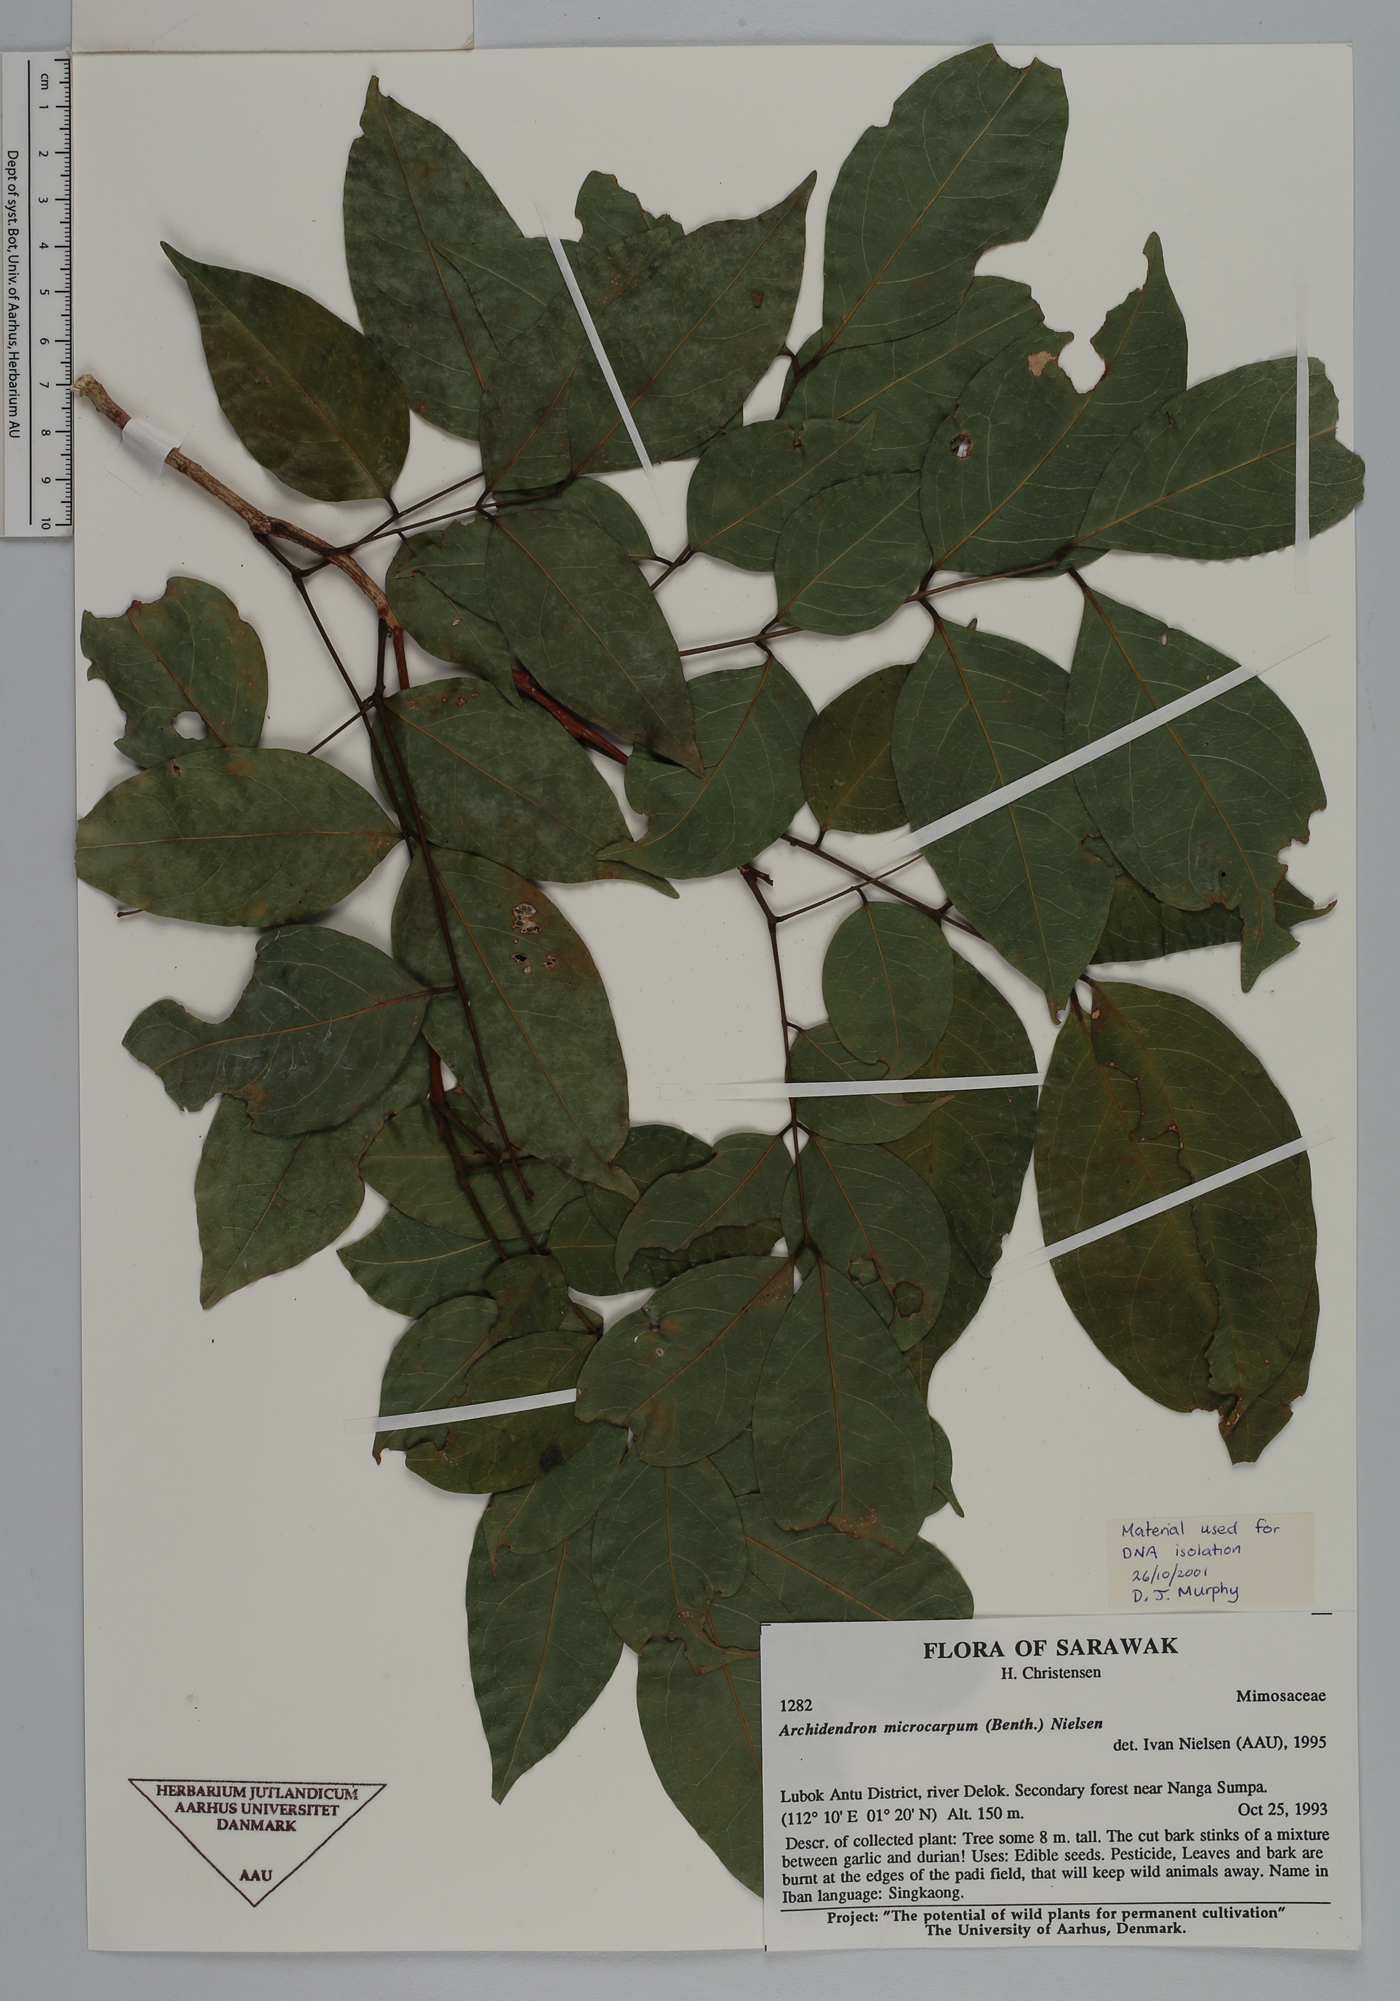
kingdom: Plantae
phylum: Tracheophyta
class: Magnoliopsida
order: Fabales
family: Fabaceae
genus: Archidendron
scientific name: Archidendron microcarpum
